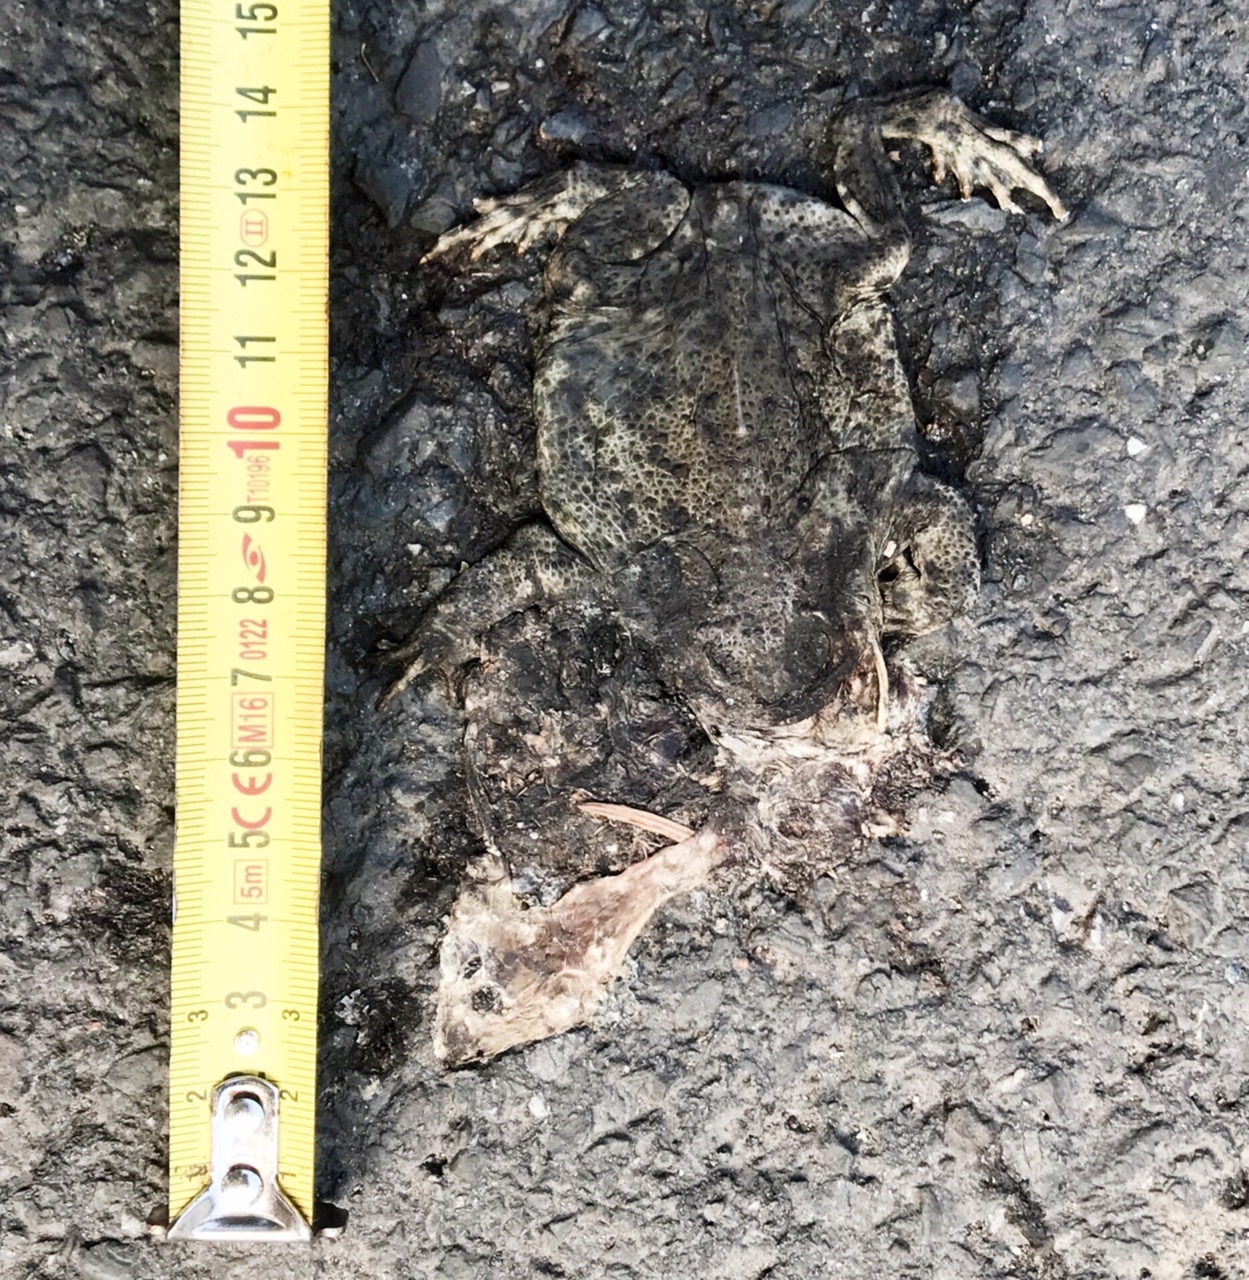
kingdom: Animalia
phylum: Chordata
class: Amphibia
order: Anura
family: Bufonidae
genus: Epidalea
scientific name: Epidalea calamita
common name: Natterjack toad
